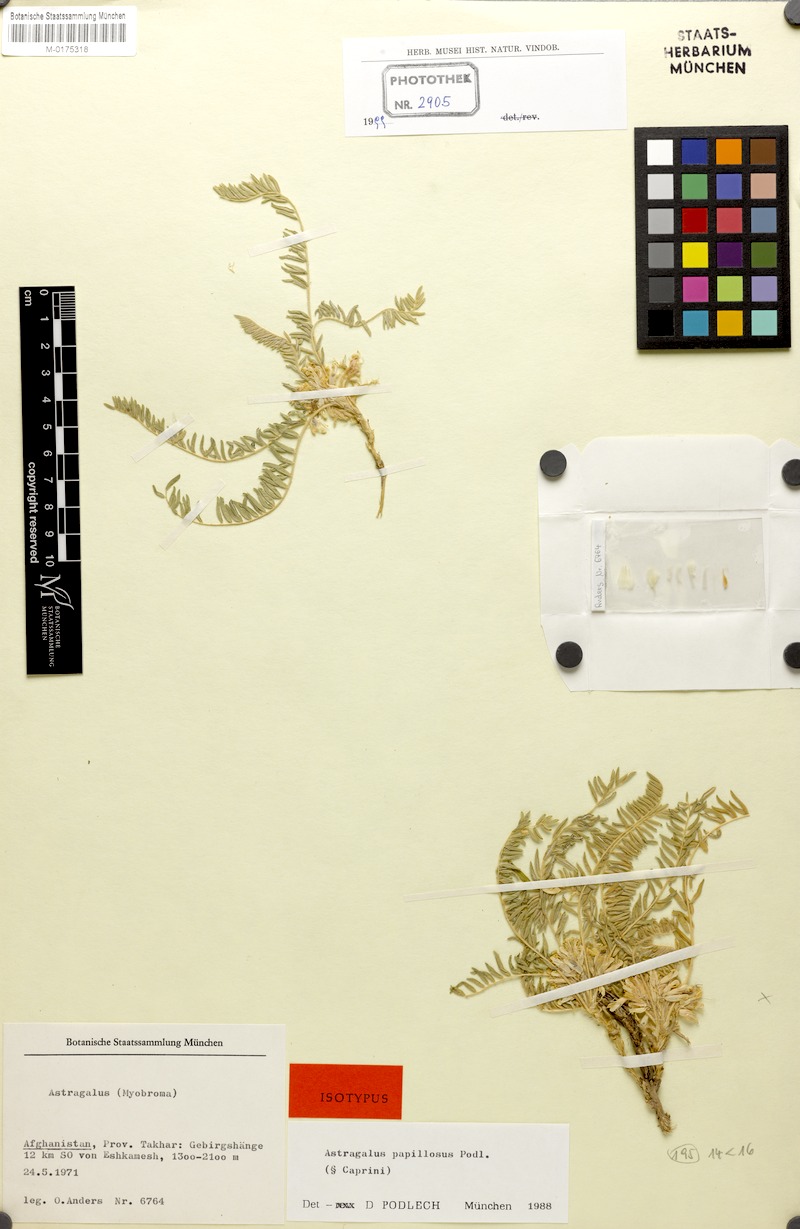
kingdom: Plantae
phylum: Tracheophyta
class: Magnoliopsida
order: Fabales
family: Fabaceae
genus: Astragalus
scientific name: Astragalus papillosus
